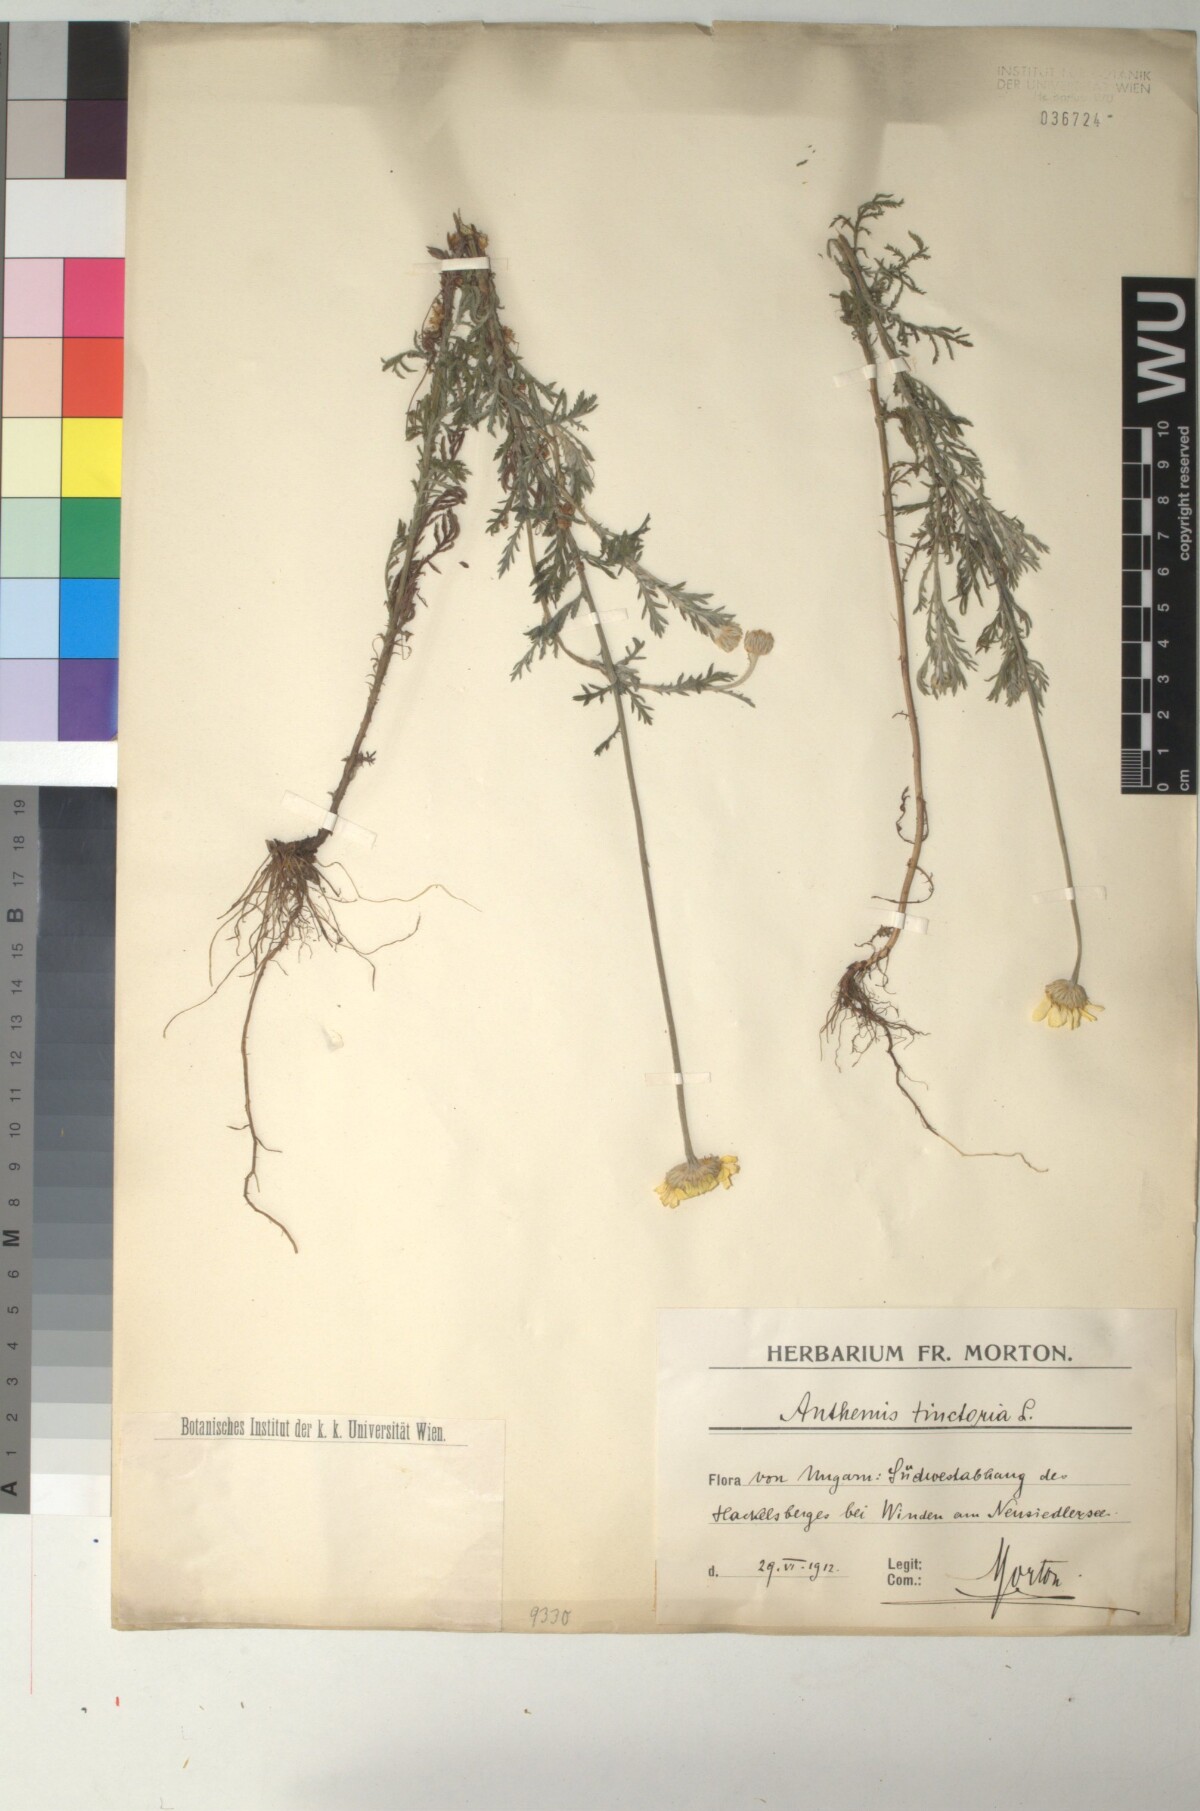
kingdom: Plantae
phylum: Tracheophyta
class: Magnoliopsida
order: Asterales
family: Asteraceae
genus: Cota
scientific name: Cota tinctoria
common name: Golden chamomile
